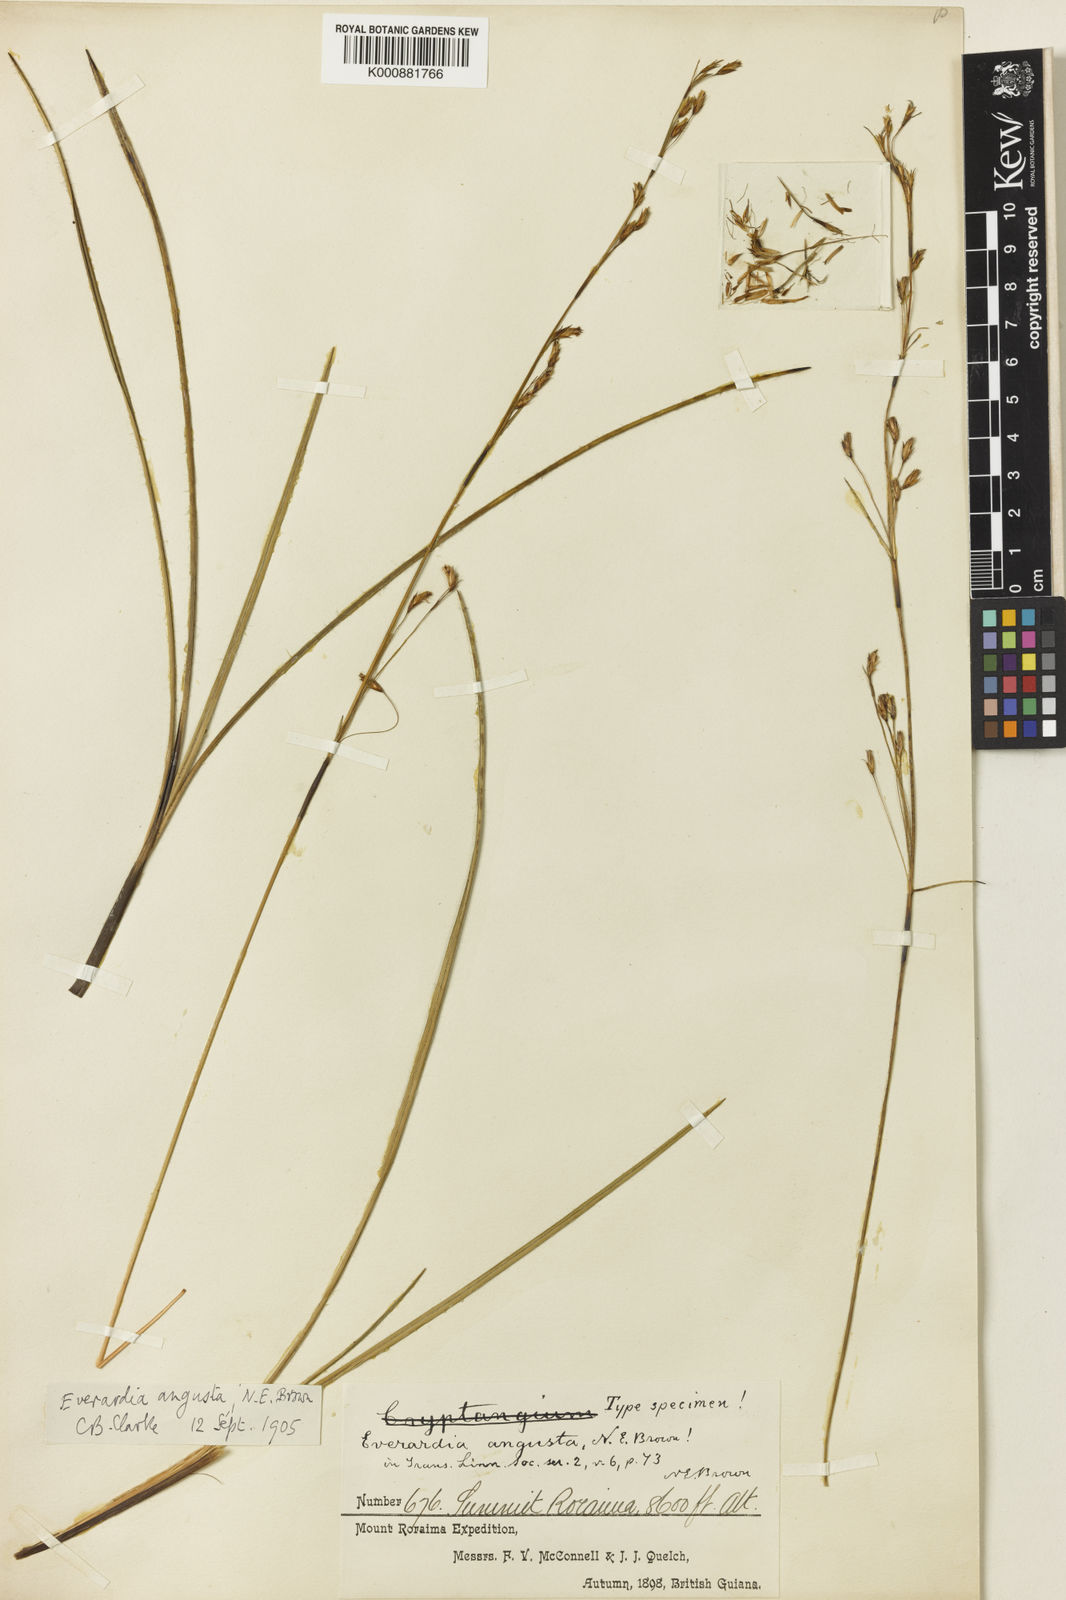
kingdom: Plantae
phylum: Tracheophyta
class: Liliopsida
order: Poales
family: Cyperaceae
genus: Cephalocarpus
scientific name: Cephalocarpus angustus
